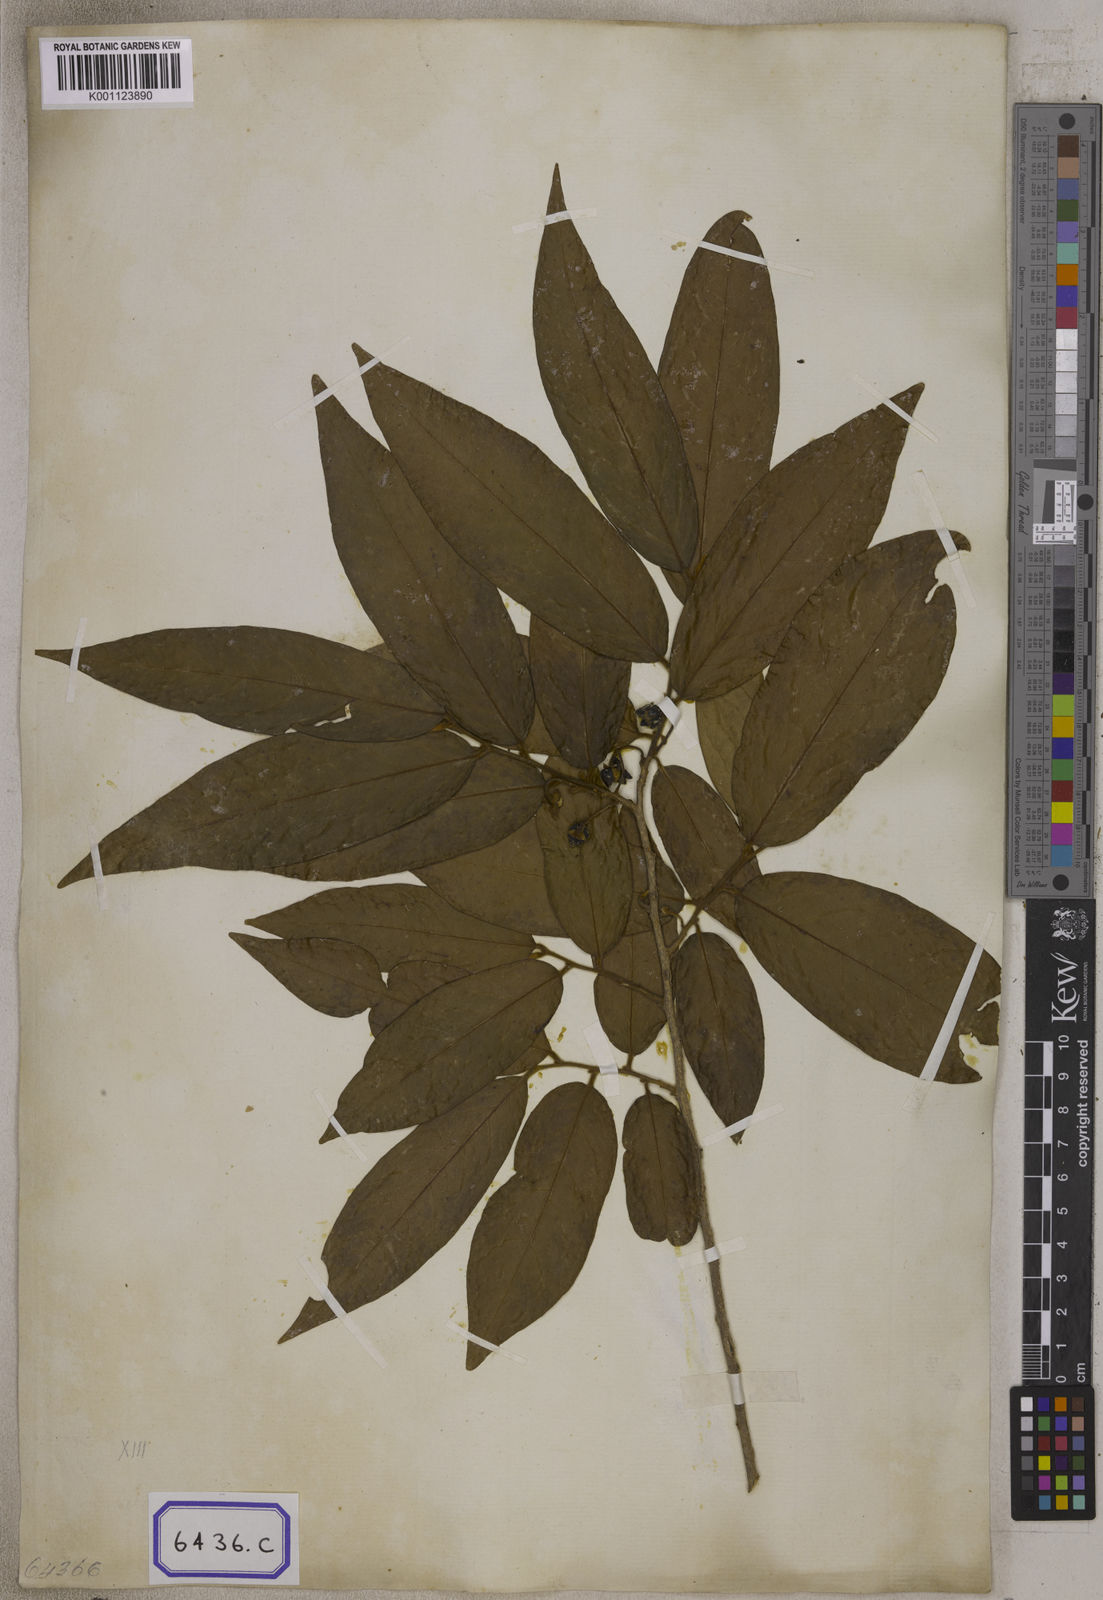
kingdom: Plantae
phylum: Tracheophyta
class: Magnoliopsida
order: Magnoliales
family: Annonaceae
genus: Hubera
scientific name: Hubera cerasoides
